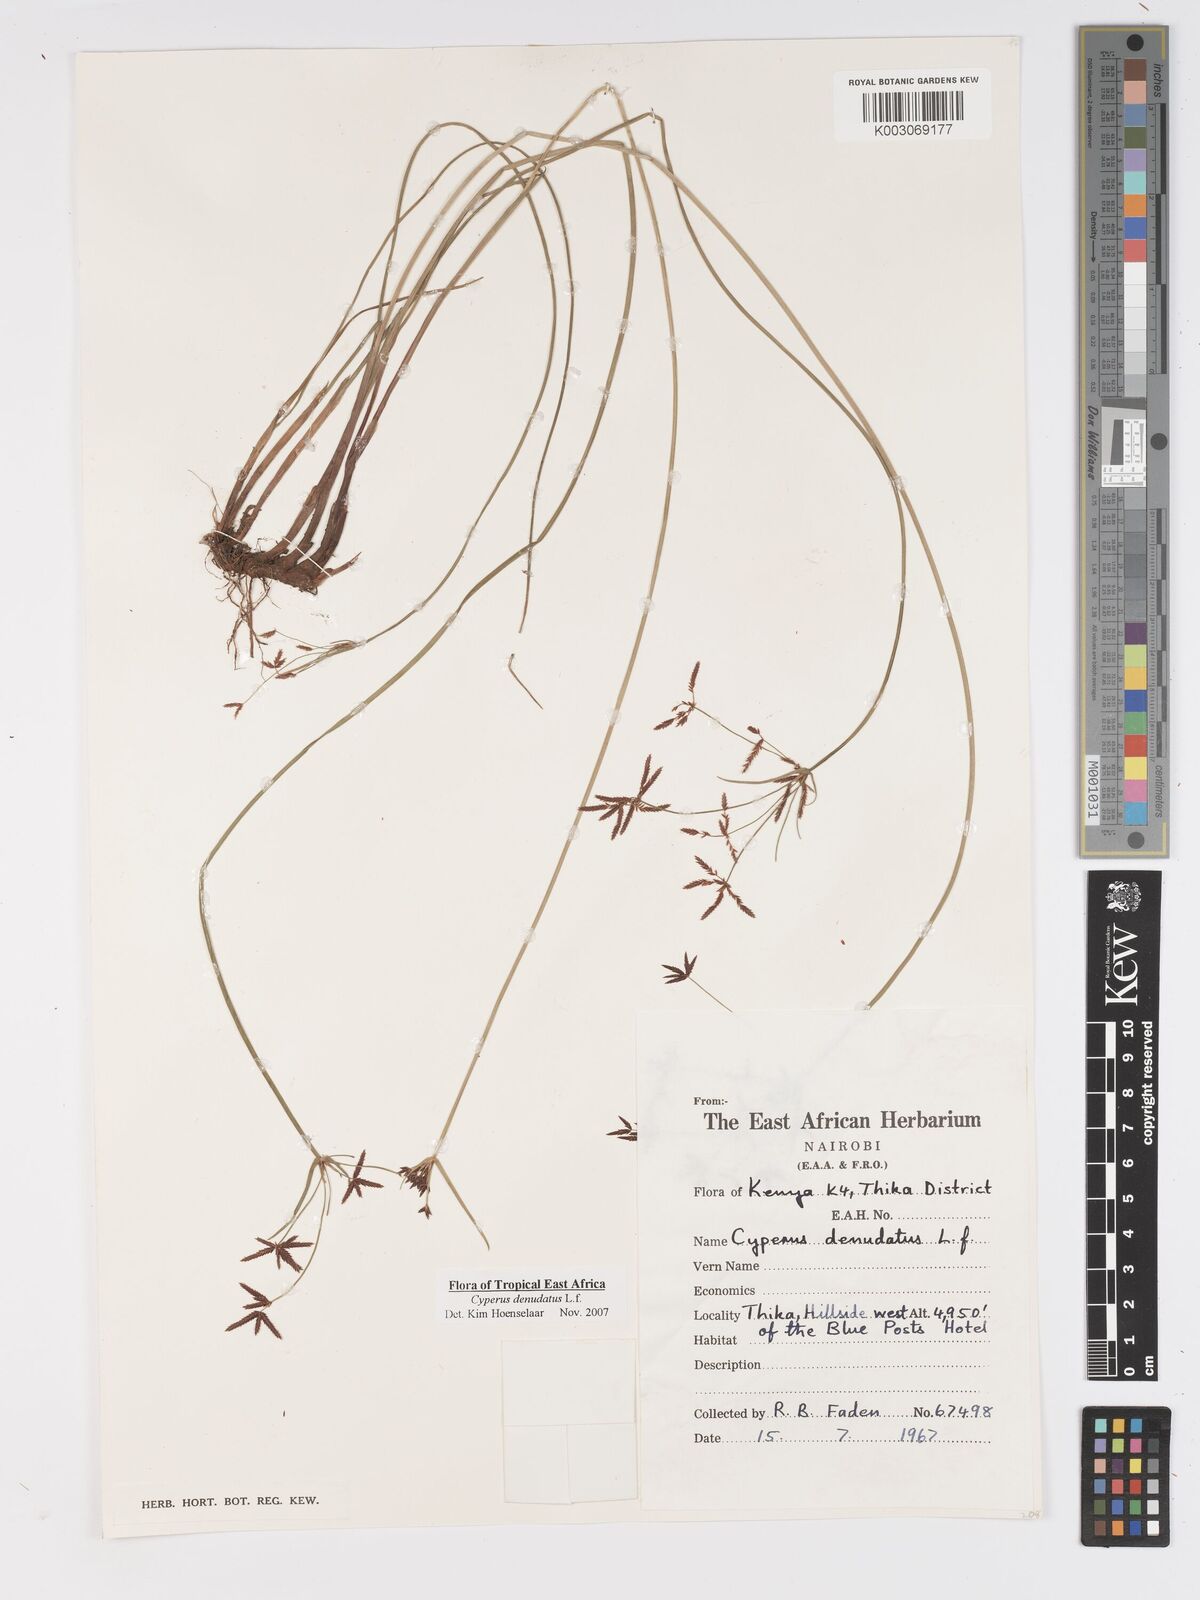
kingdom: Plantae
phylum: Tracheophyta
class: Liliopsida
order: Poales
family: Cyperaceae
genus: Cyperus
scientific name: Cyperus platycaulis
